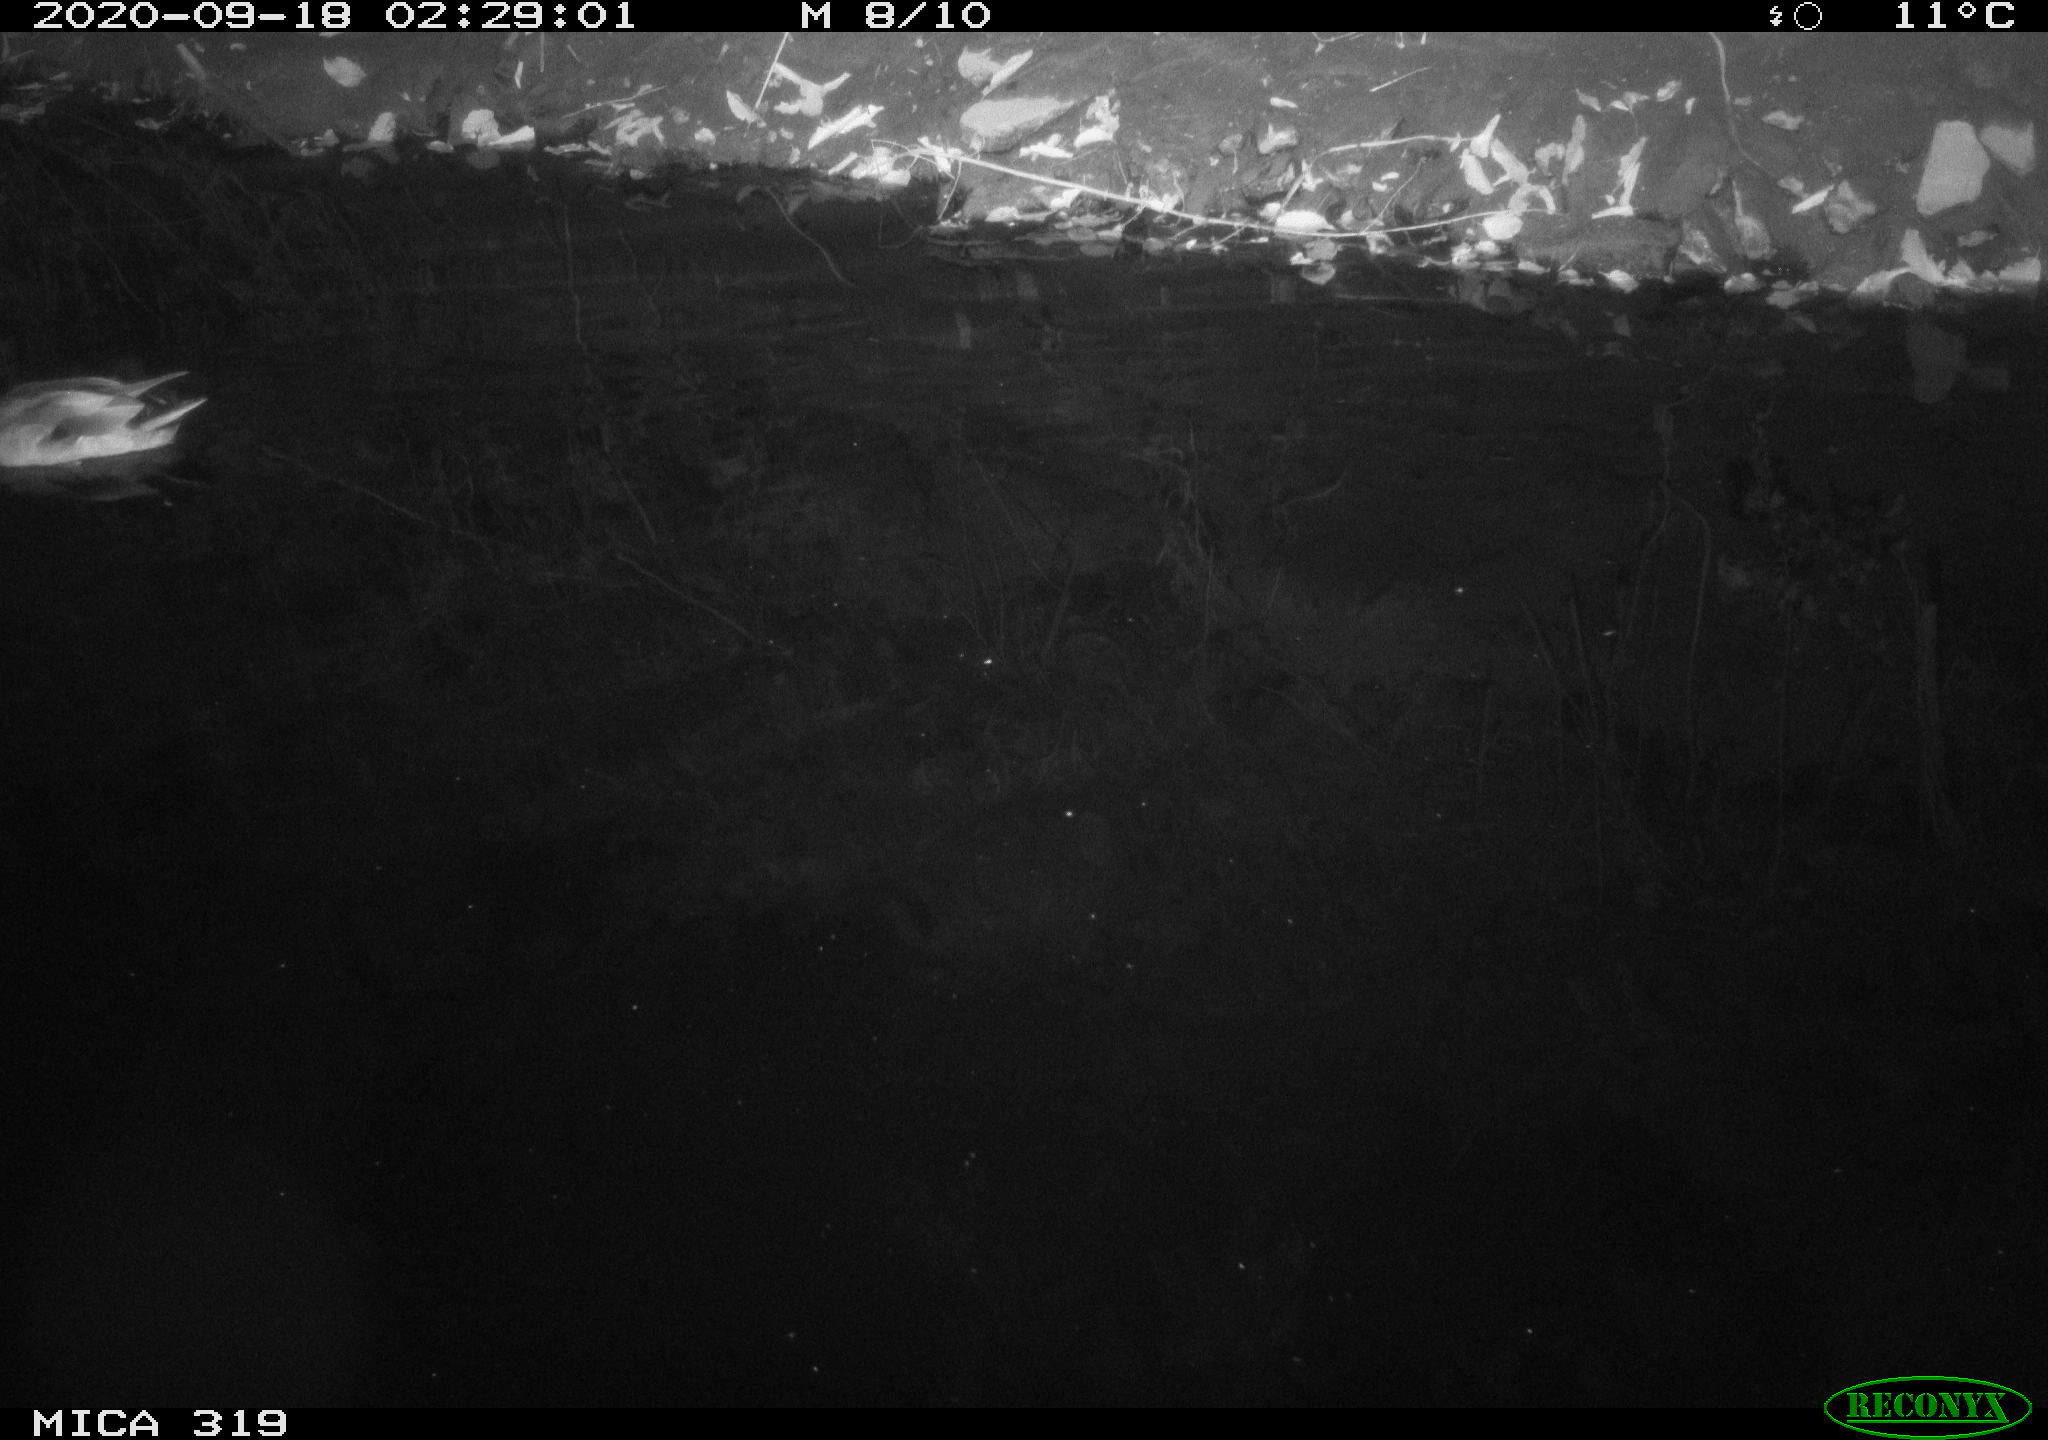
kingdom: Animalia
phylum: Chordata
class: Aves
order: Anseriformes
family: Anatidae
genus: Anas
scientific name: Anas platyrhynchos
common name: Mallard
